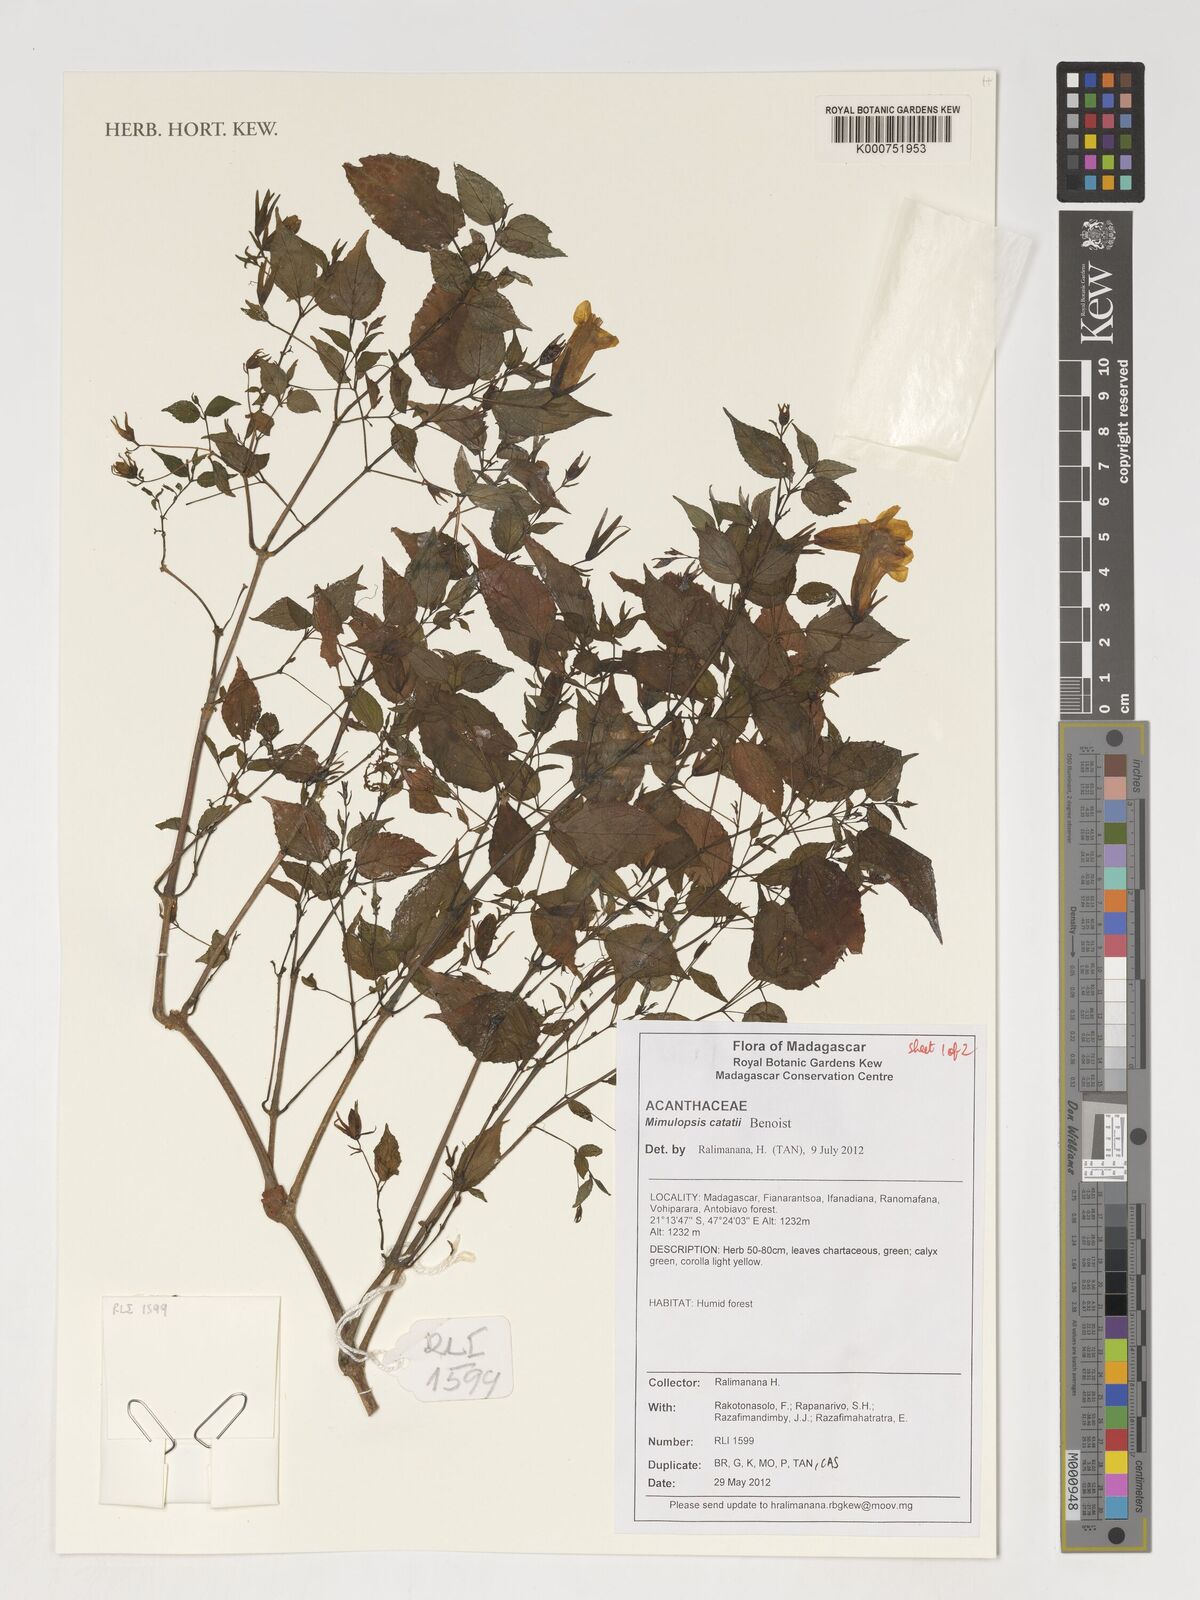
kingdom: Plantae
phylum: Tracheophyta
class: Magnoliopsida
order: Lamiales
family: Acanthaceae
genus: Mimulopsis
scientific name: Mimulopsis catati
